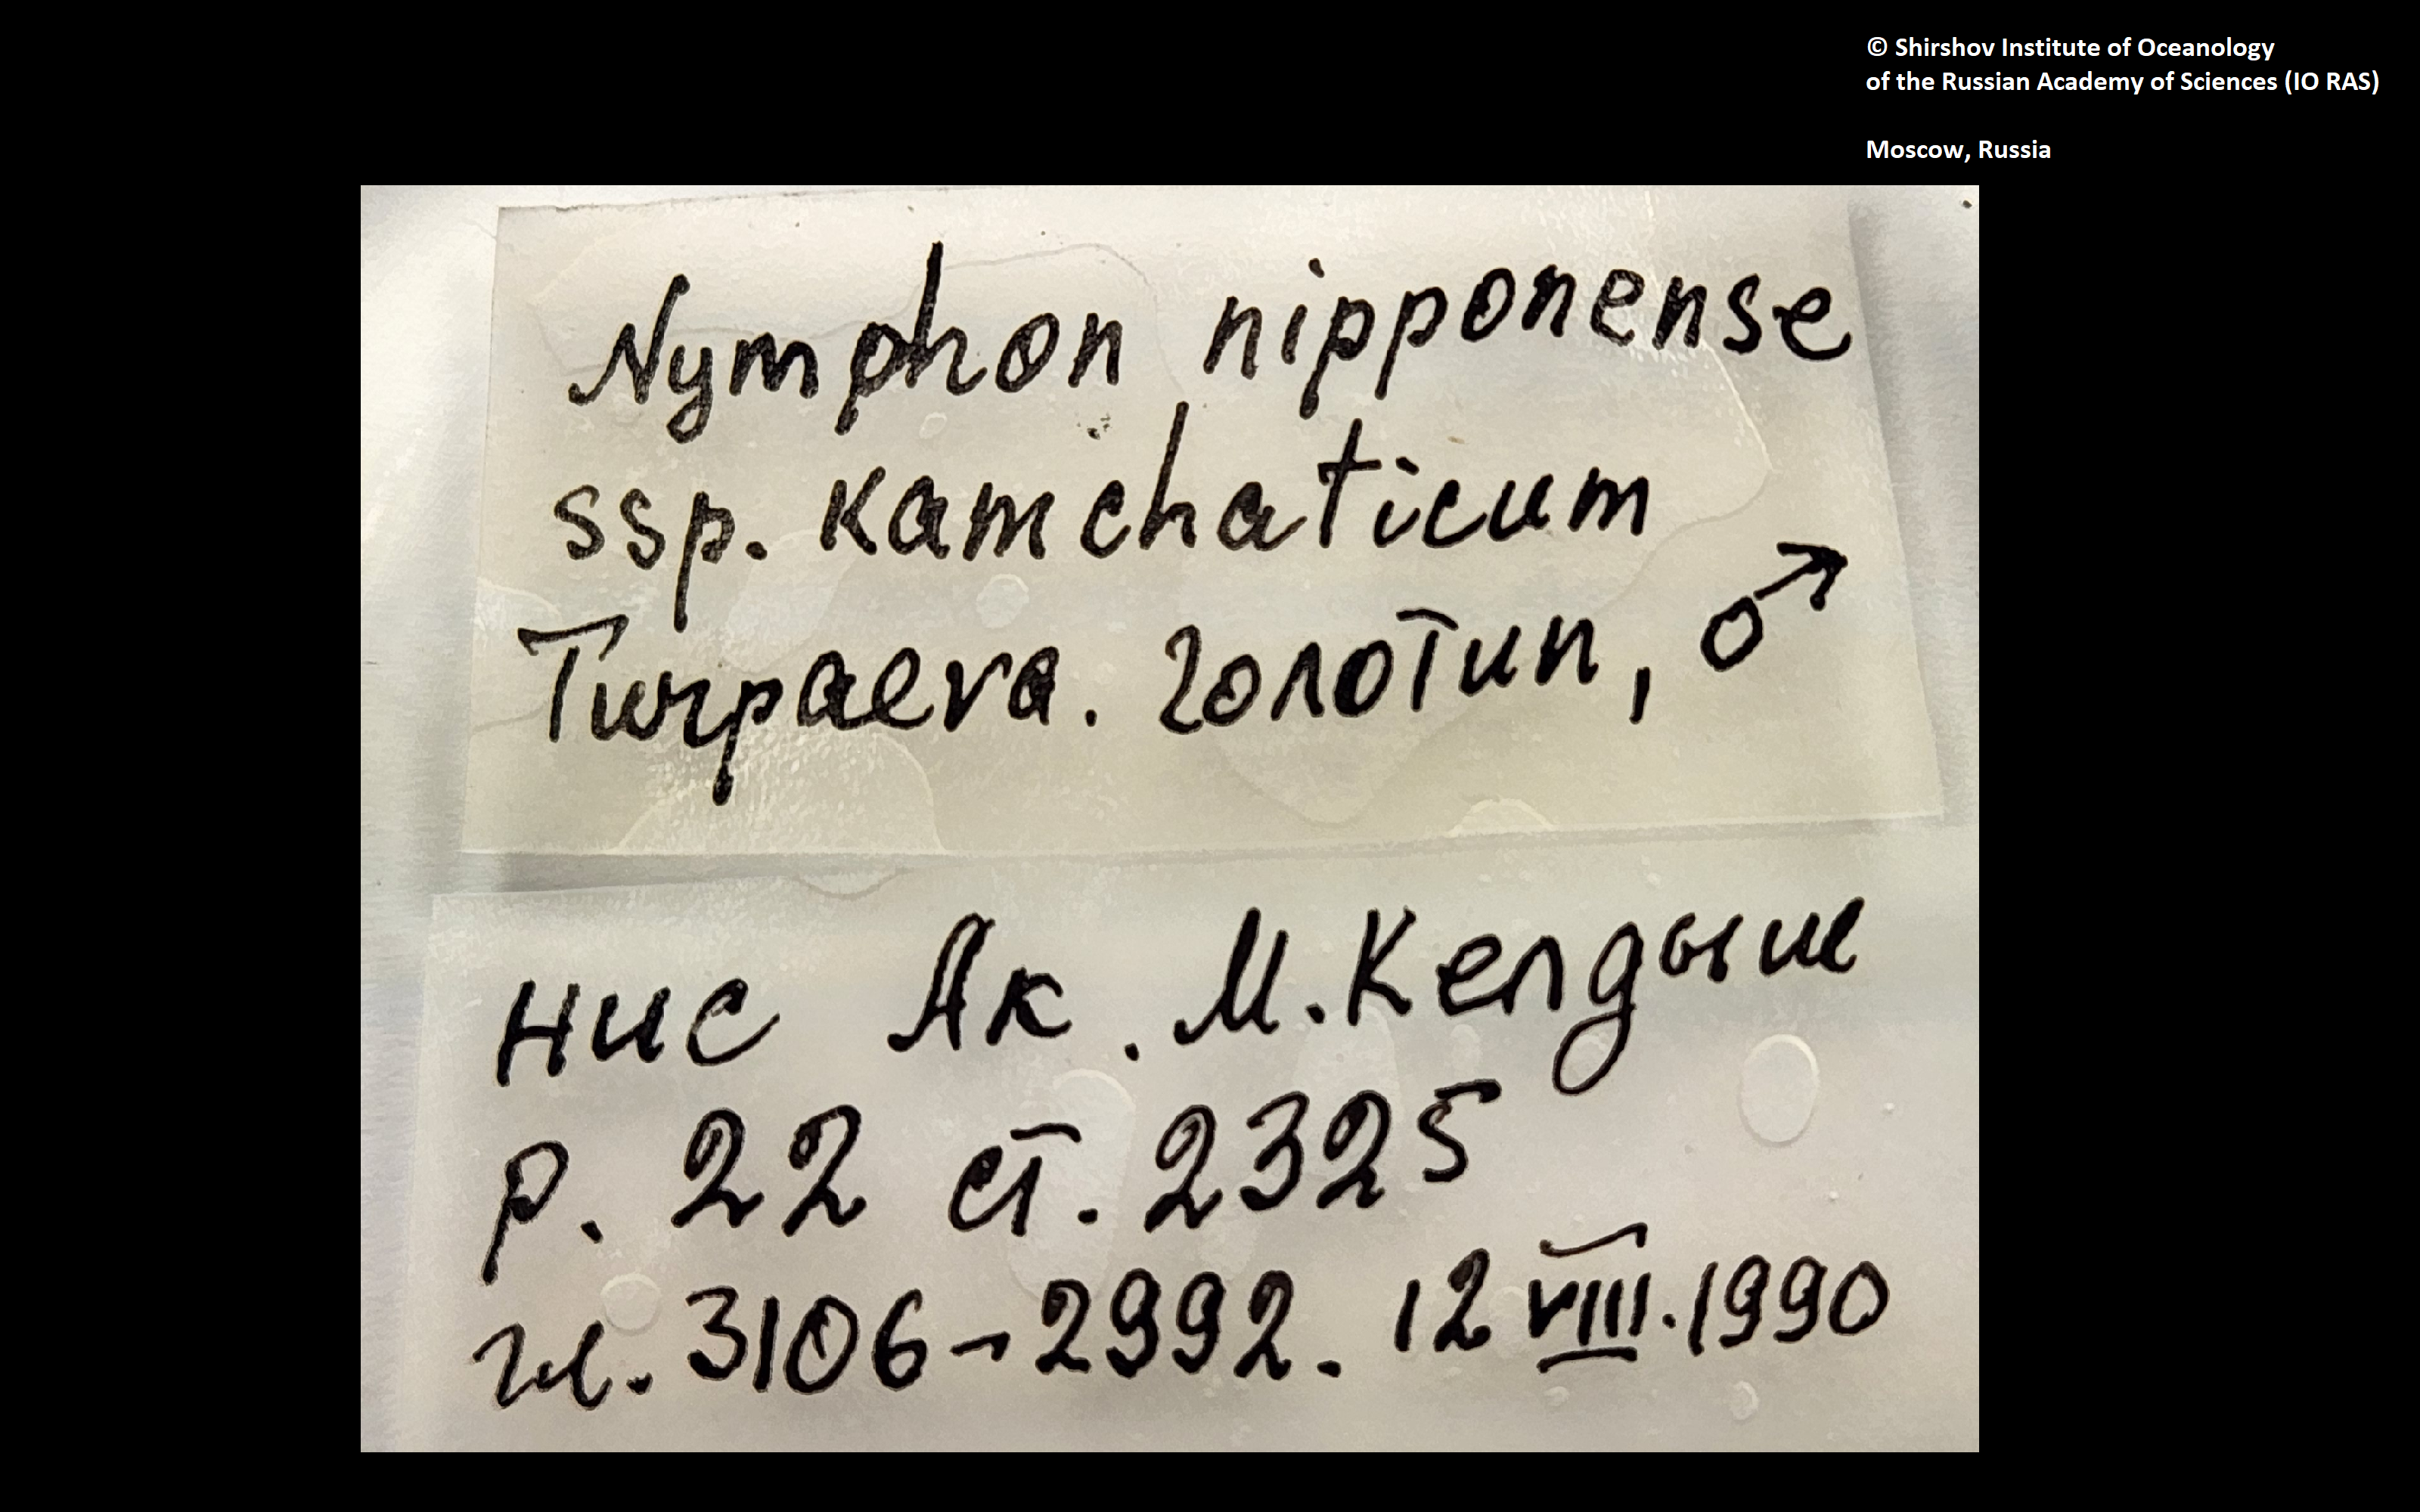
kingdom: Animalia
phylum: Arthropoda
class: Pycnogonida
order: Pantopoda
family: Nymphonidae
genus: Nymphon
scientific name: Nymphon nipponense
